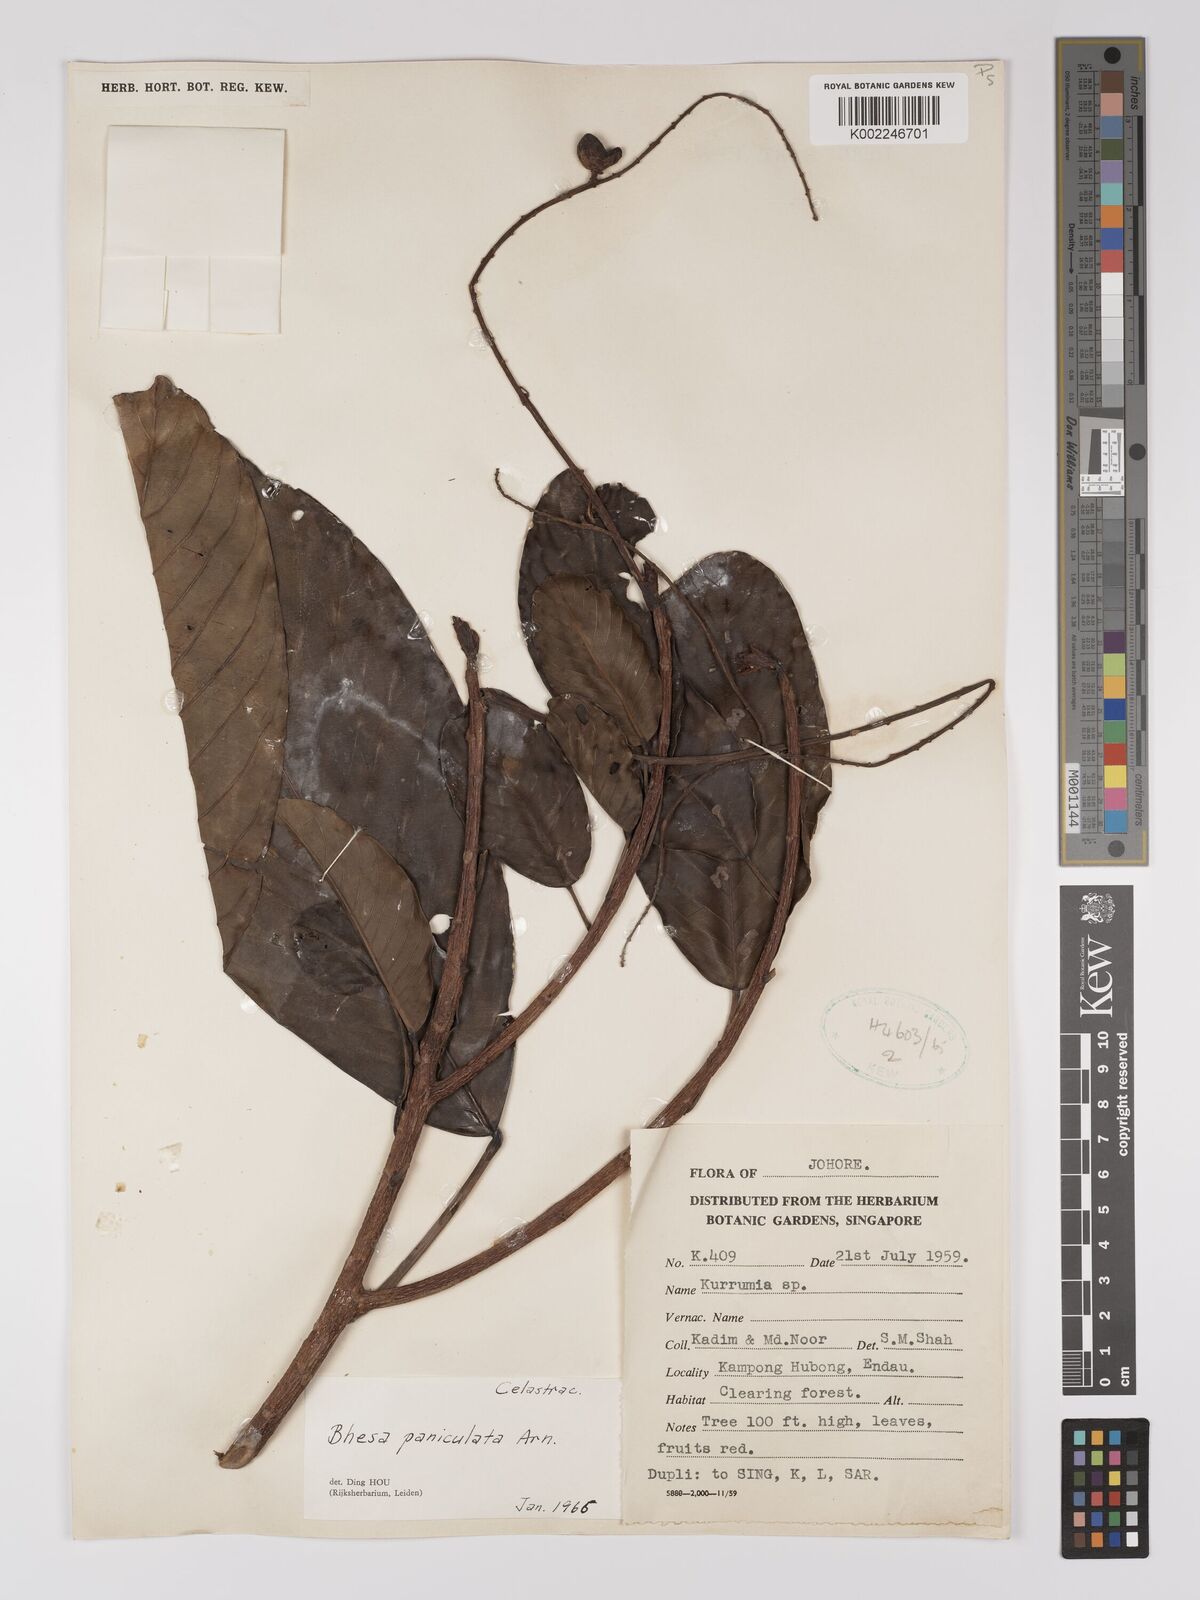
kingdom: Plantae
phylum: Tracheophyta
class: Magnoliopsida
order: Malpighiales
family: Centroplacaceae
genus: Bhesa
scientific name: Bhesa paniculata
